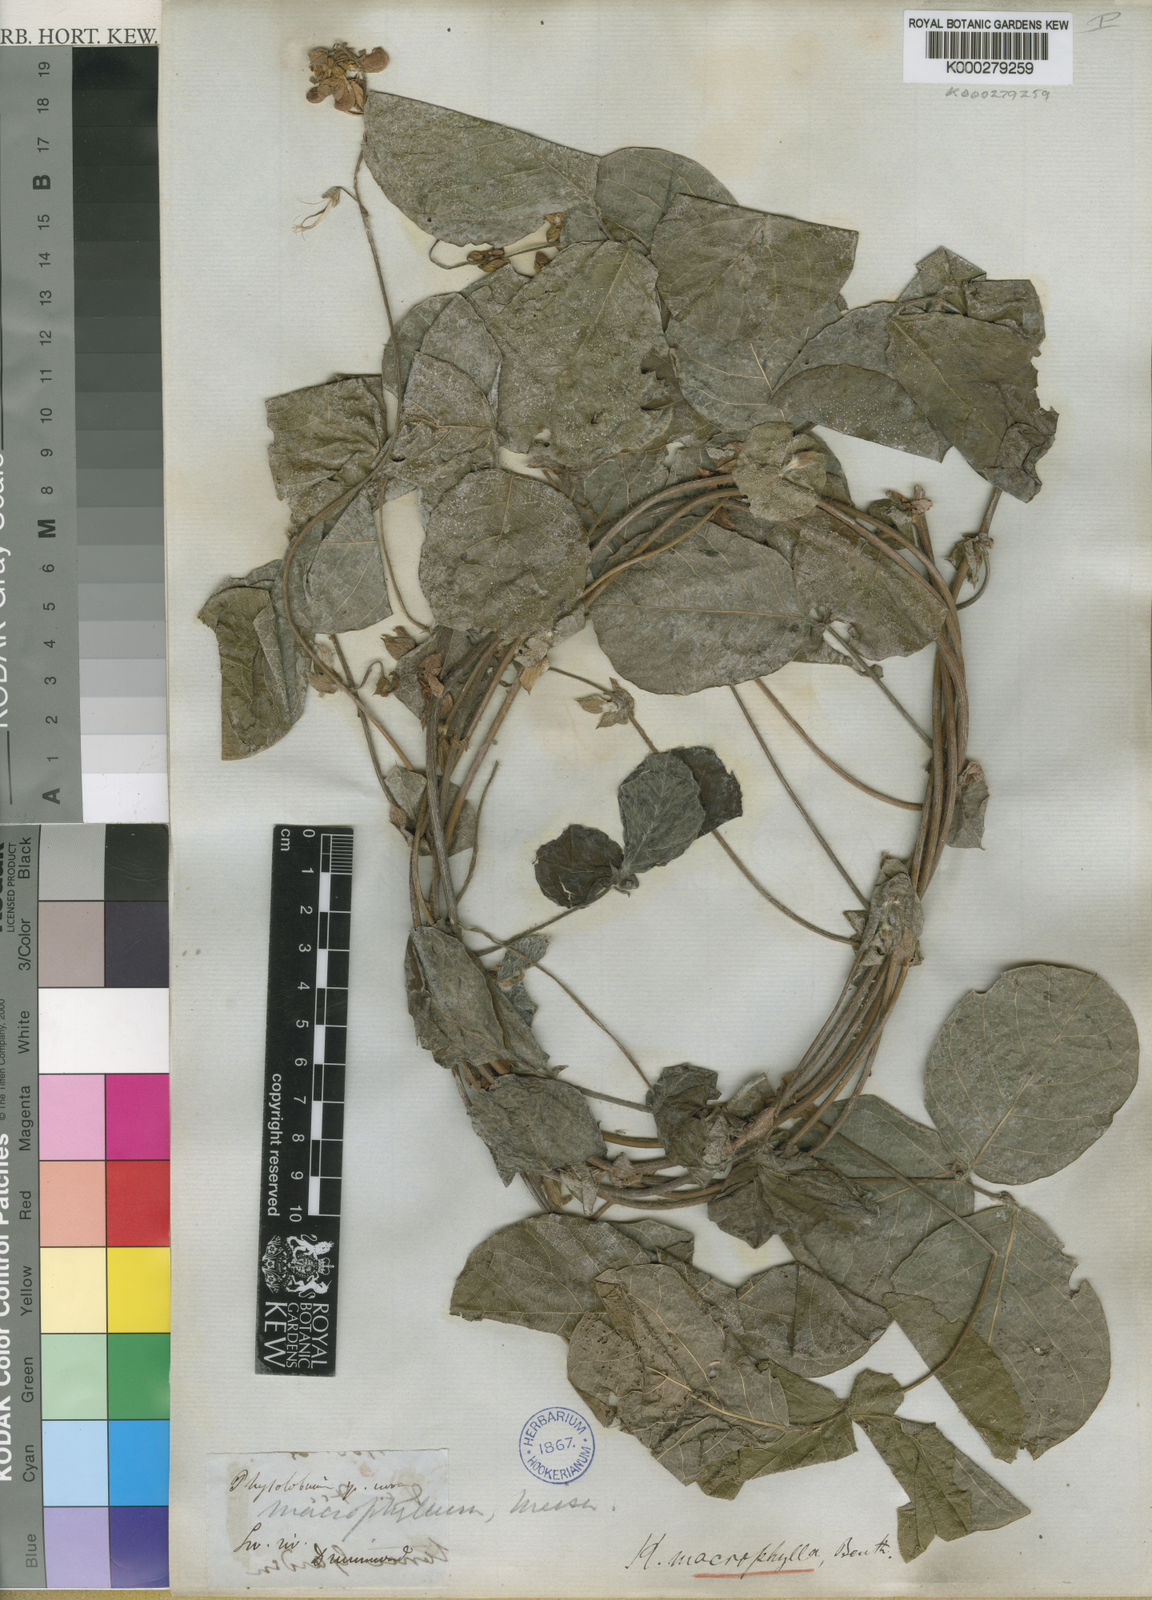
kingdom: Plantae
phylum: Tracheophyta
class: Magnoliopsida
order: Fabales
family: Fabaceae
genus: Kennedia
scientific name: Kennedia
